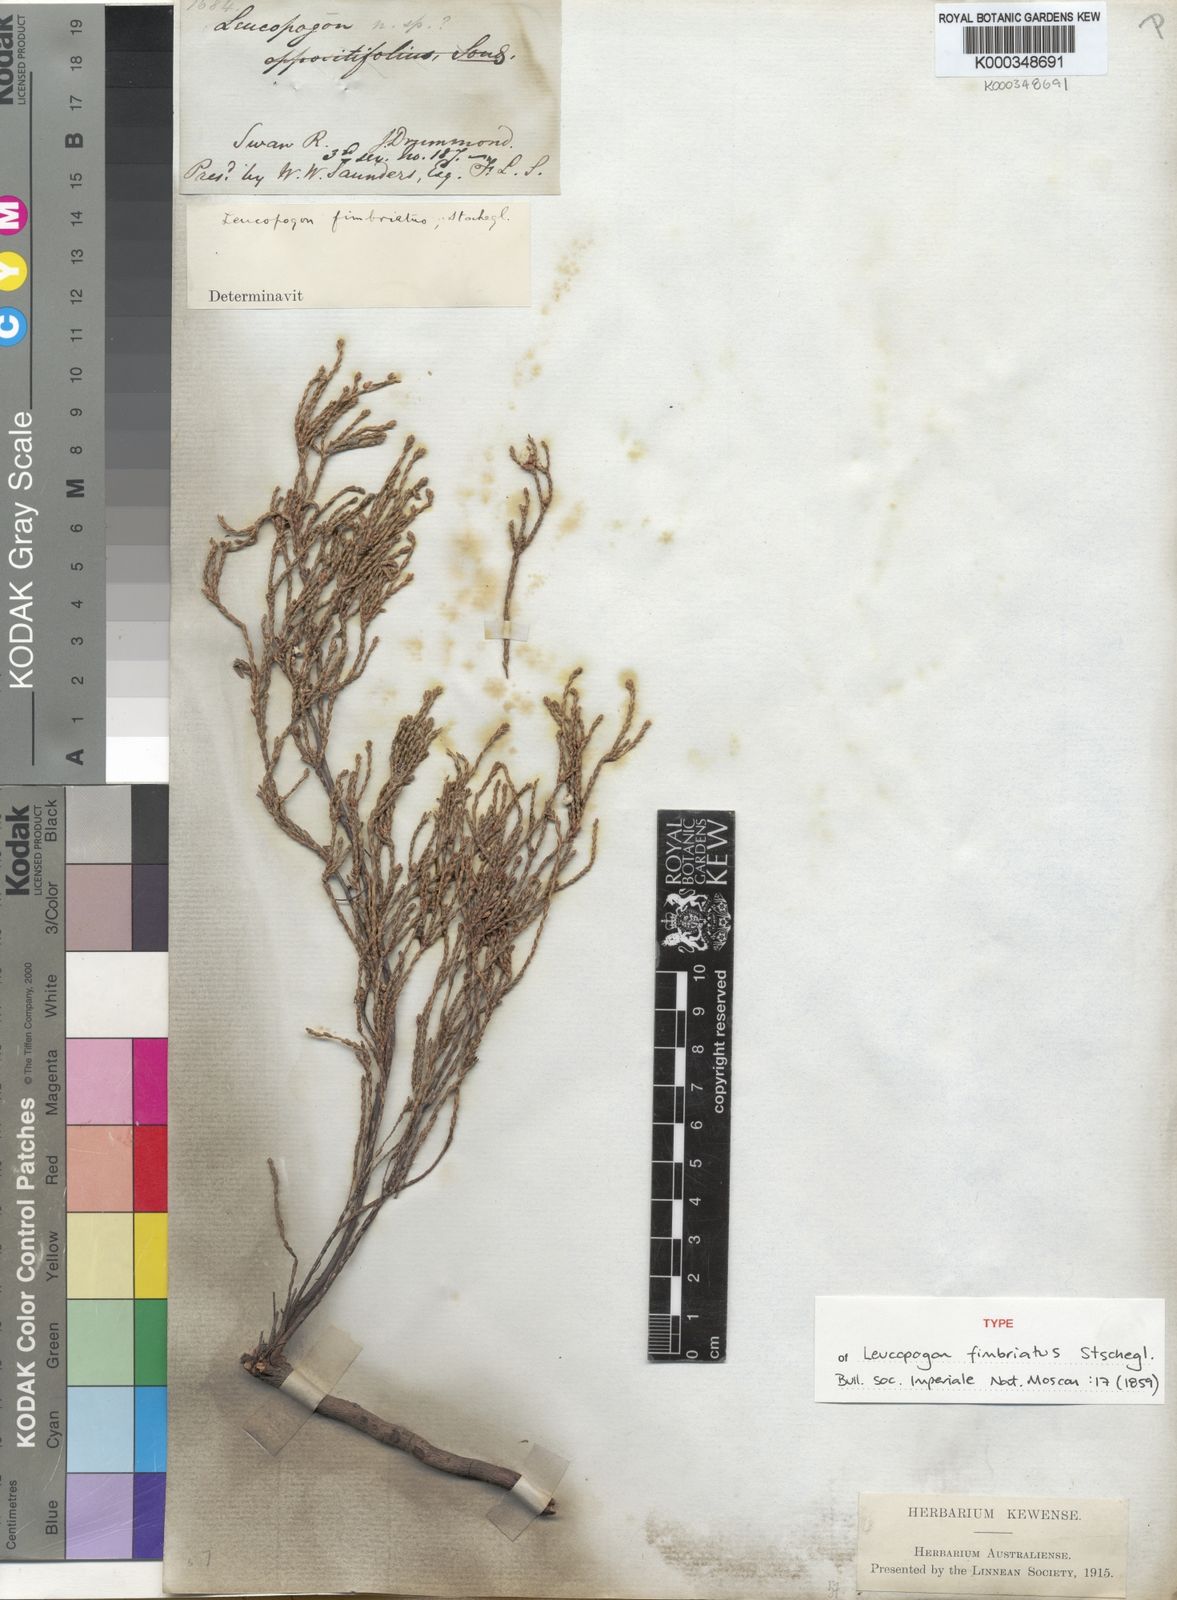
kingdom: Plantae
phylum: Tracheophyta
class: Magnoliopsida
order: Ericales
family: Ericaceae
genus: Leucopogon
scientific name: Leucopogon fimbriatus
